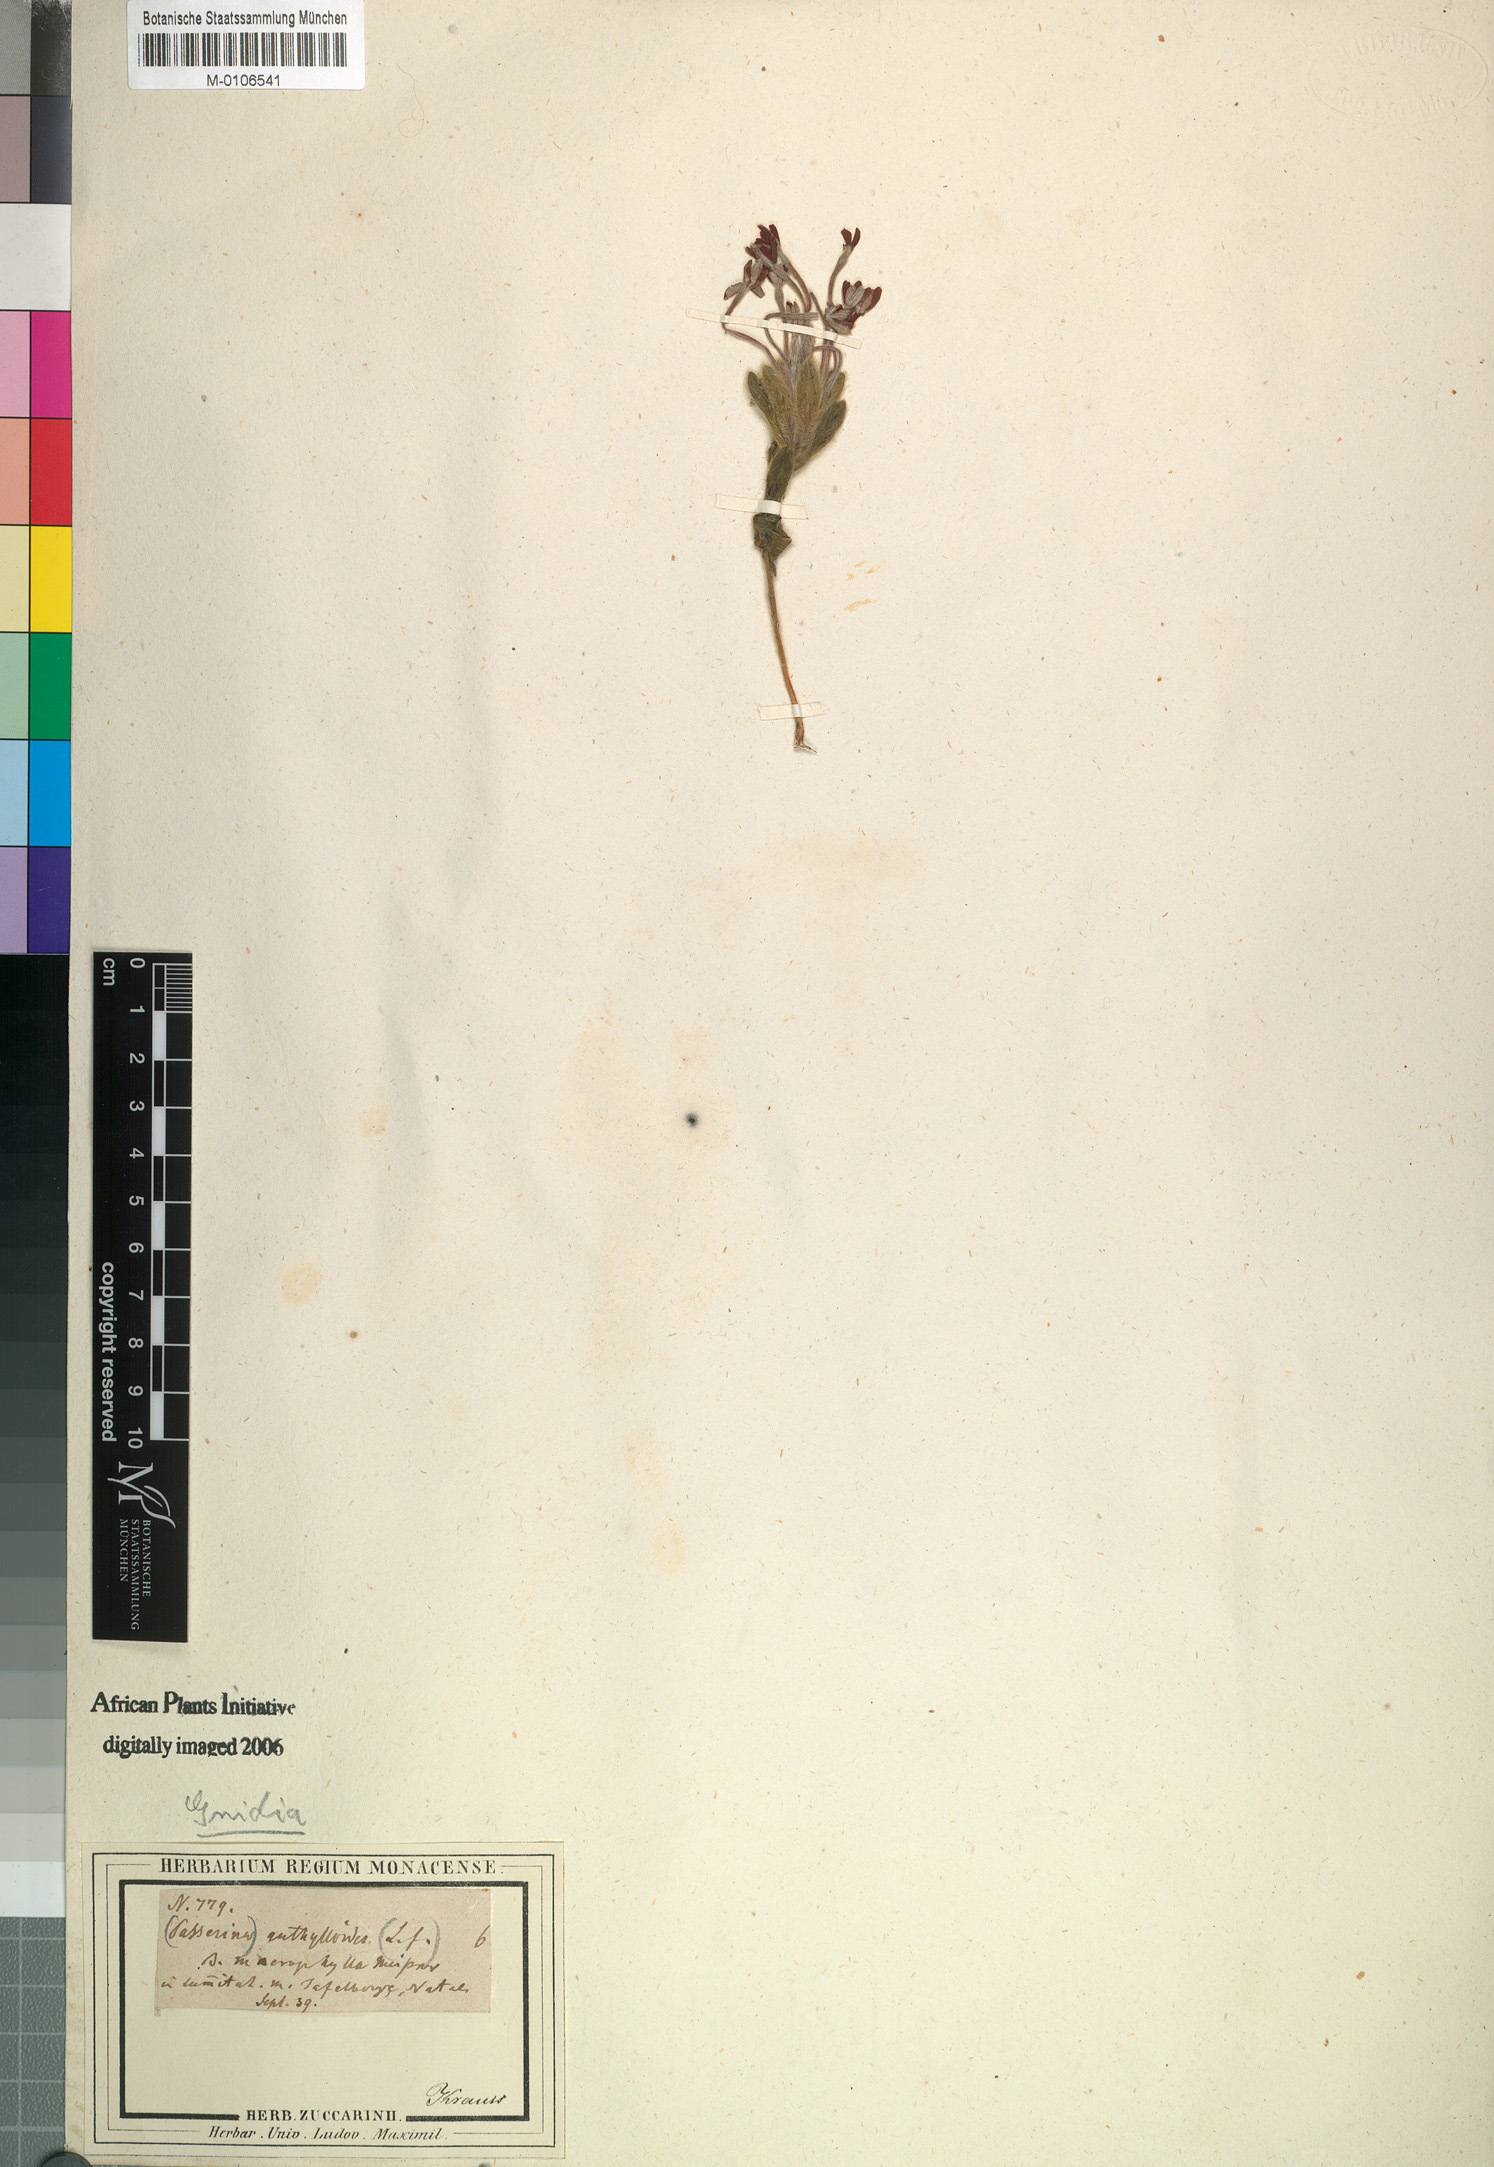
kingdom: Plantae
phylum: Tracheophyta
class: Magnoliopsida
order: Malvales
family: Thymelaeaceae
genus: Gnidia
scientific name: Gnidia anthylloides
